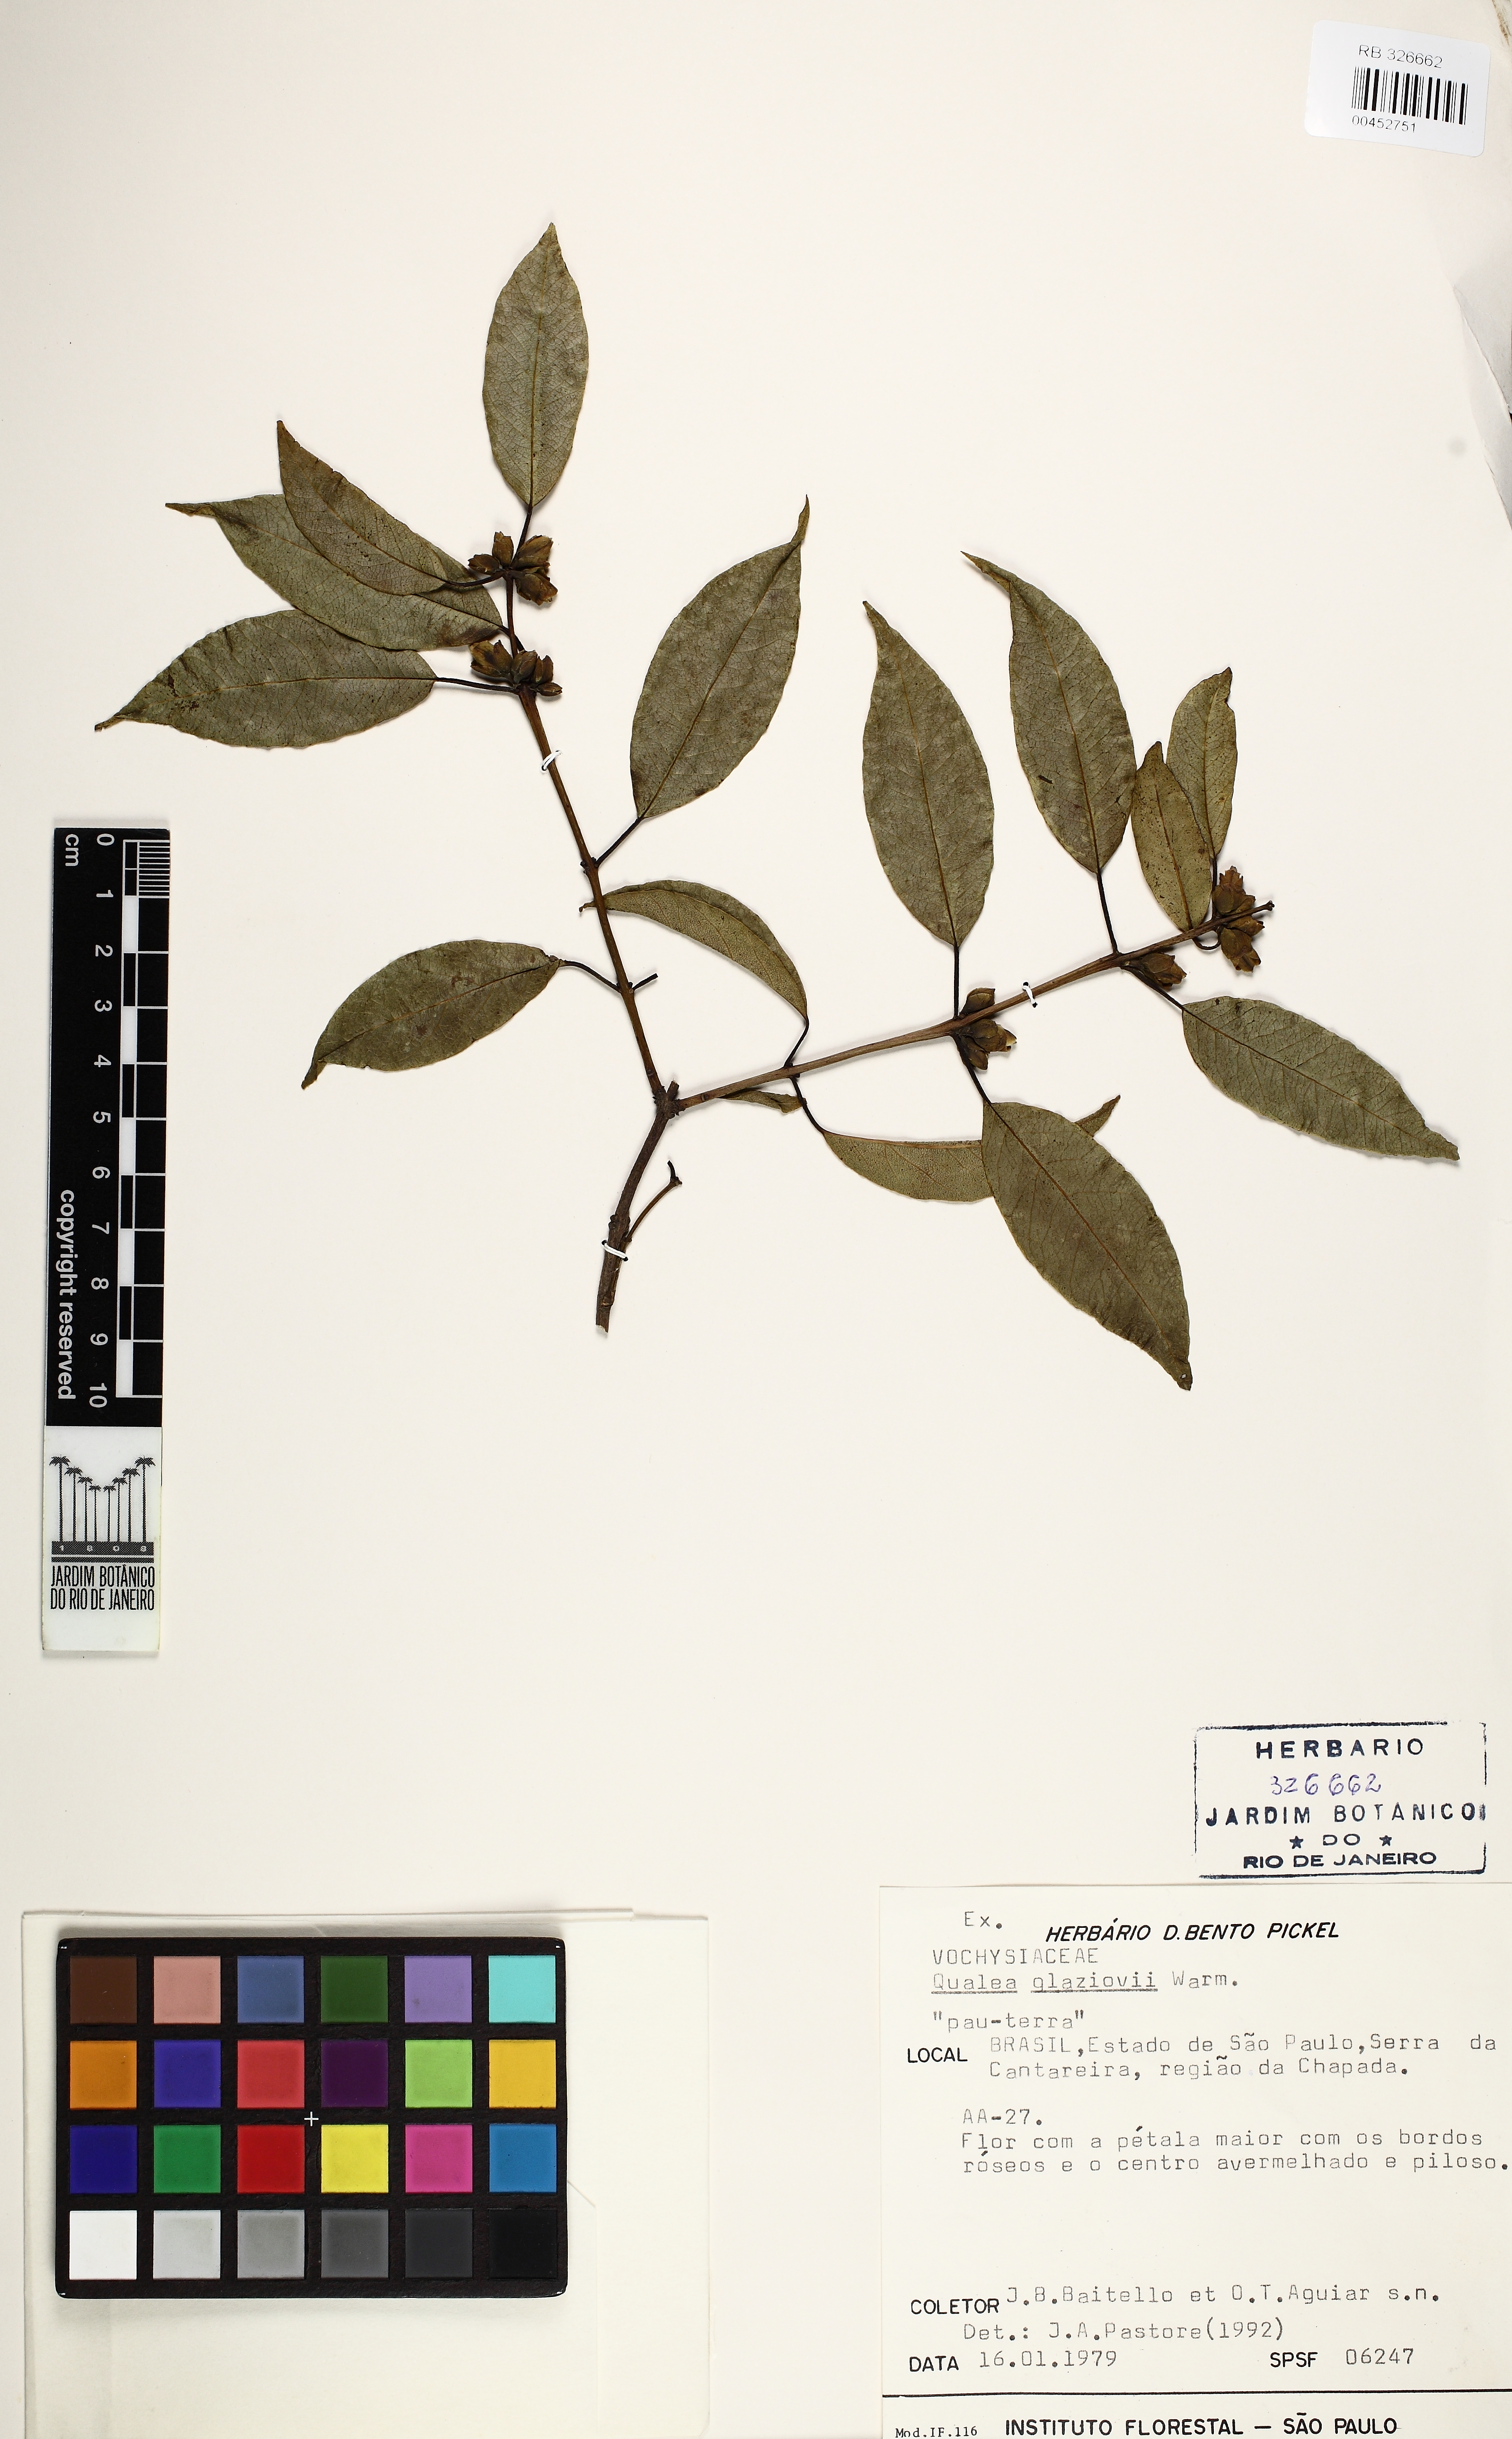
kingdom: Plantae
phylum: Tracheophyta
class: Magnoliopsida
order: Myrtales
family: Vochysiaceae
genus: Qualea
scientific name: Qualea glaziovii
